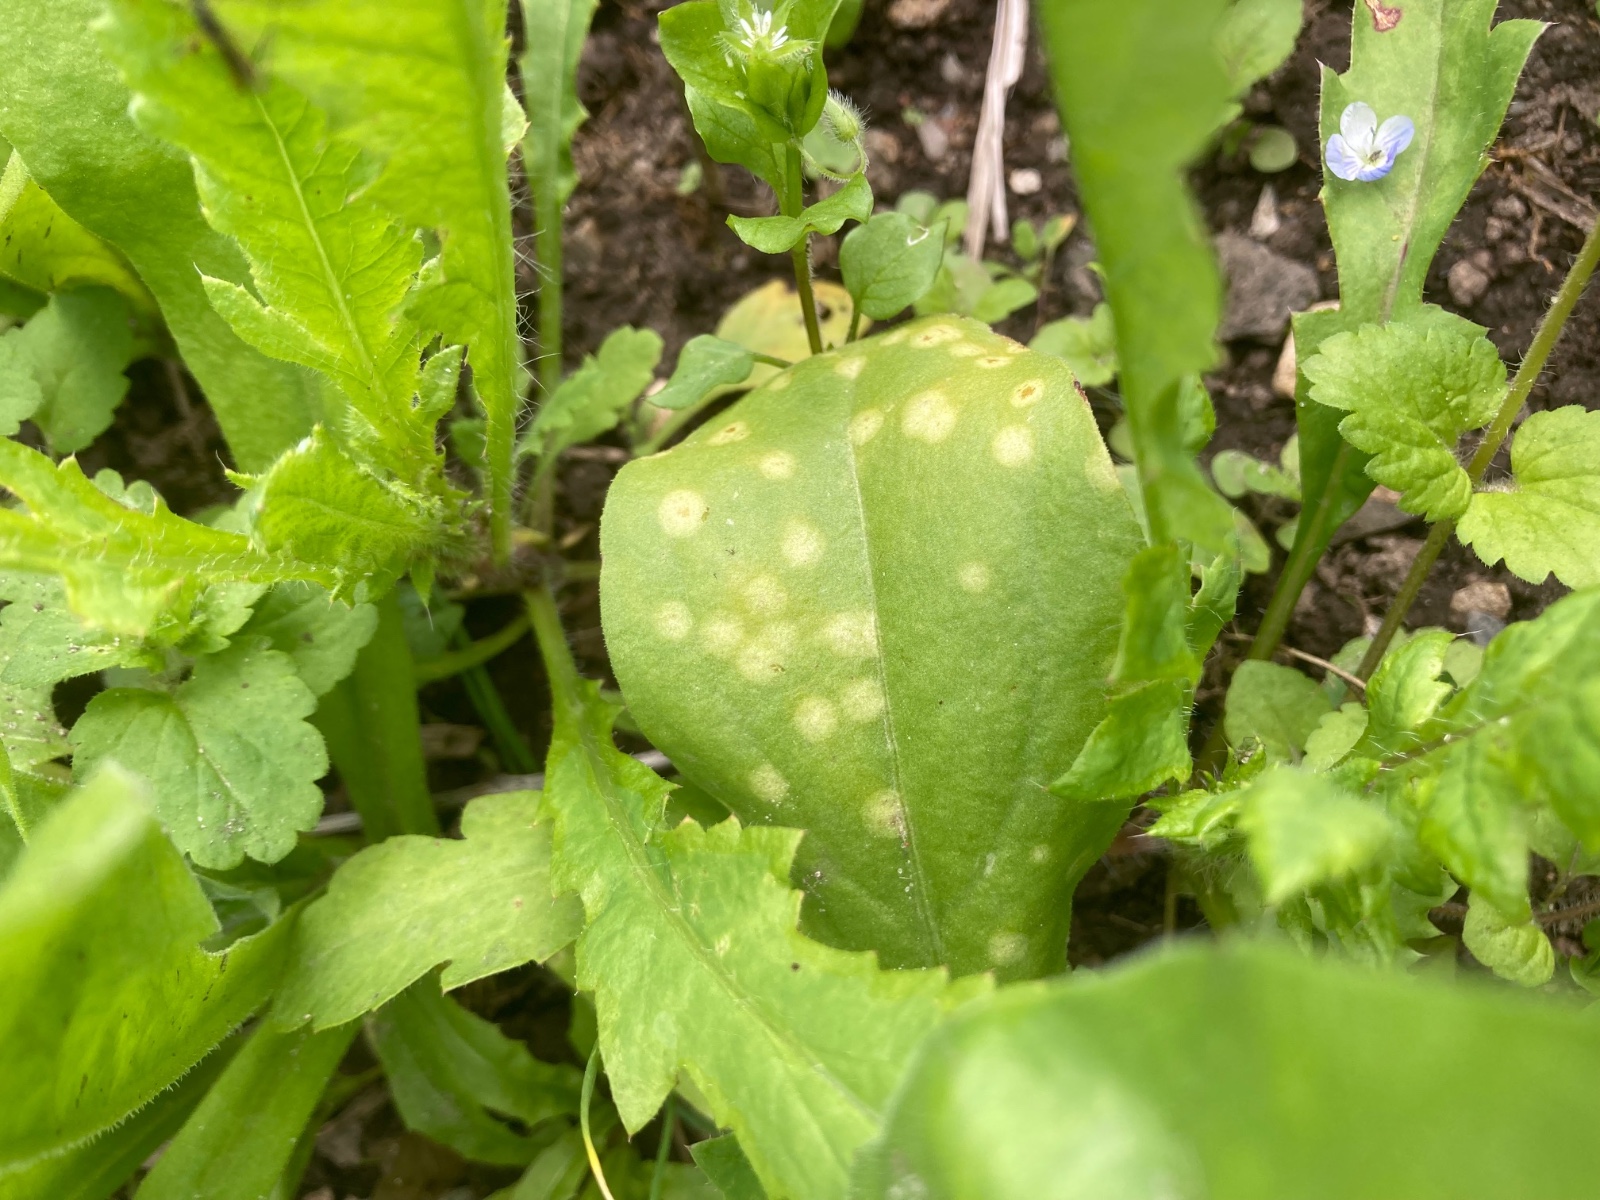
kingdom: Fungi
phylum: Basidiomycota
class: Exobasidiomycetes
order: Entylomatales
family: Entylomataceae
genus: Entyloma
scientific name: Entyloma calendulae
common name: Calendula smut
